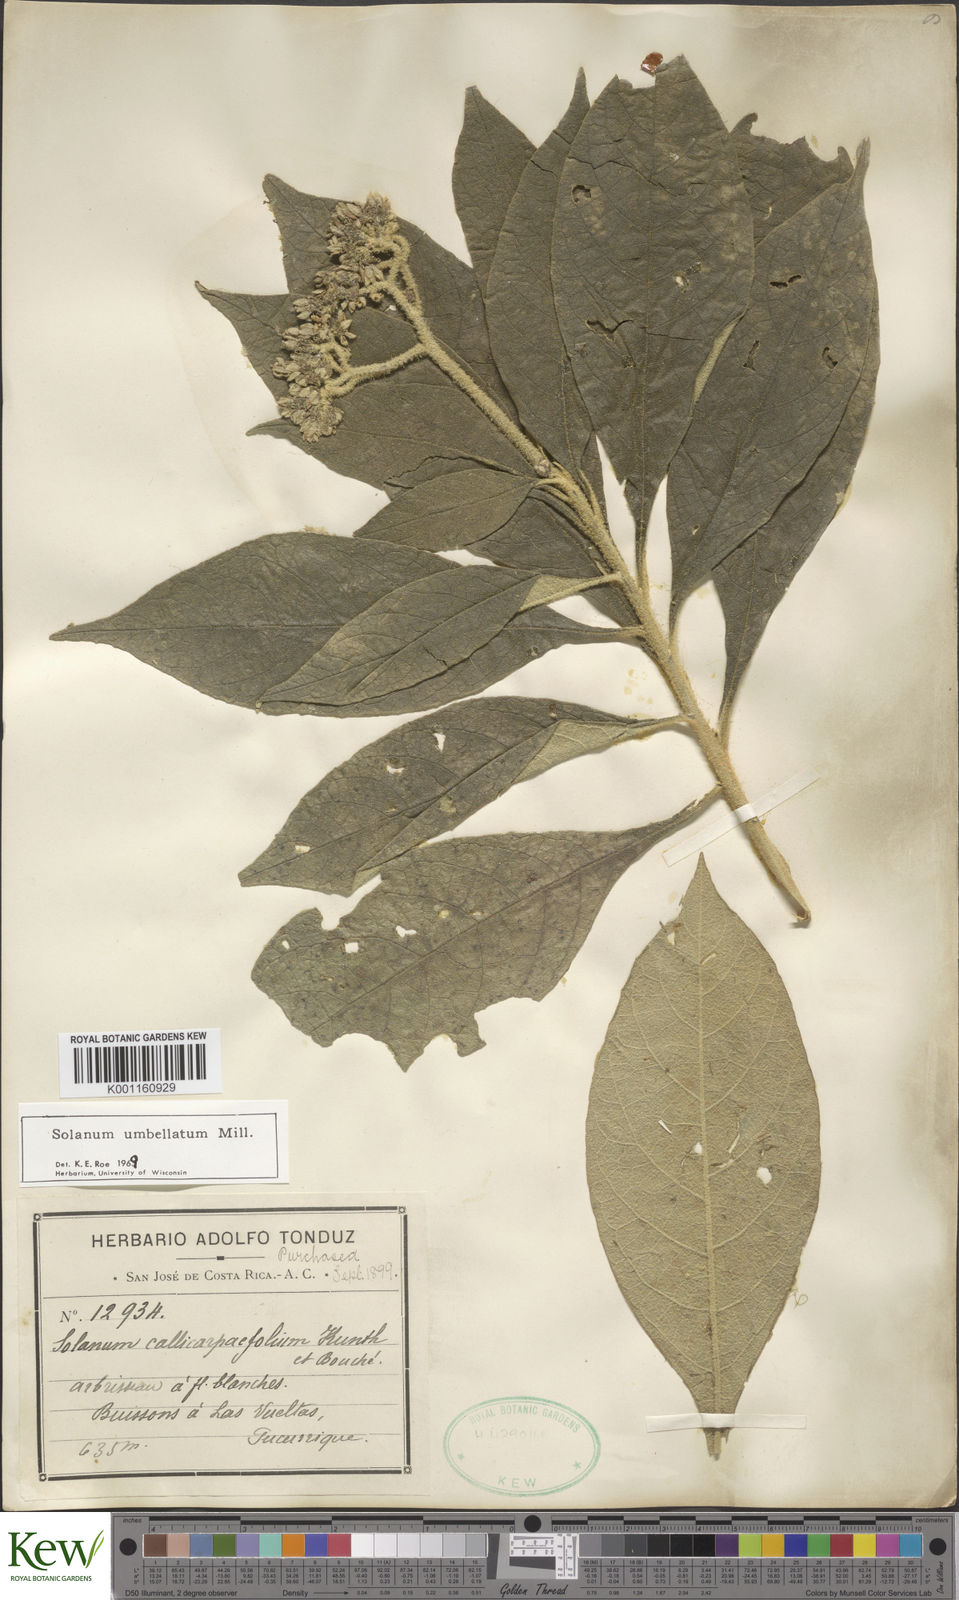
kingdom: Plantae
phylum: Tracheophyta
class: Magnoliopsida
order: Solanales
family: Solanaceae
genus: Solanum
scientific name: Solanum umbellatum
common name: Nightshade
